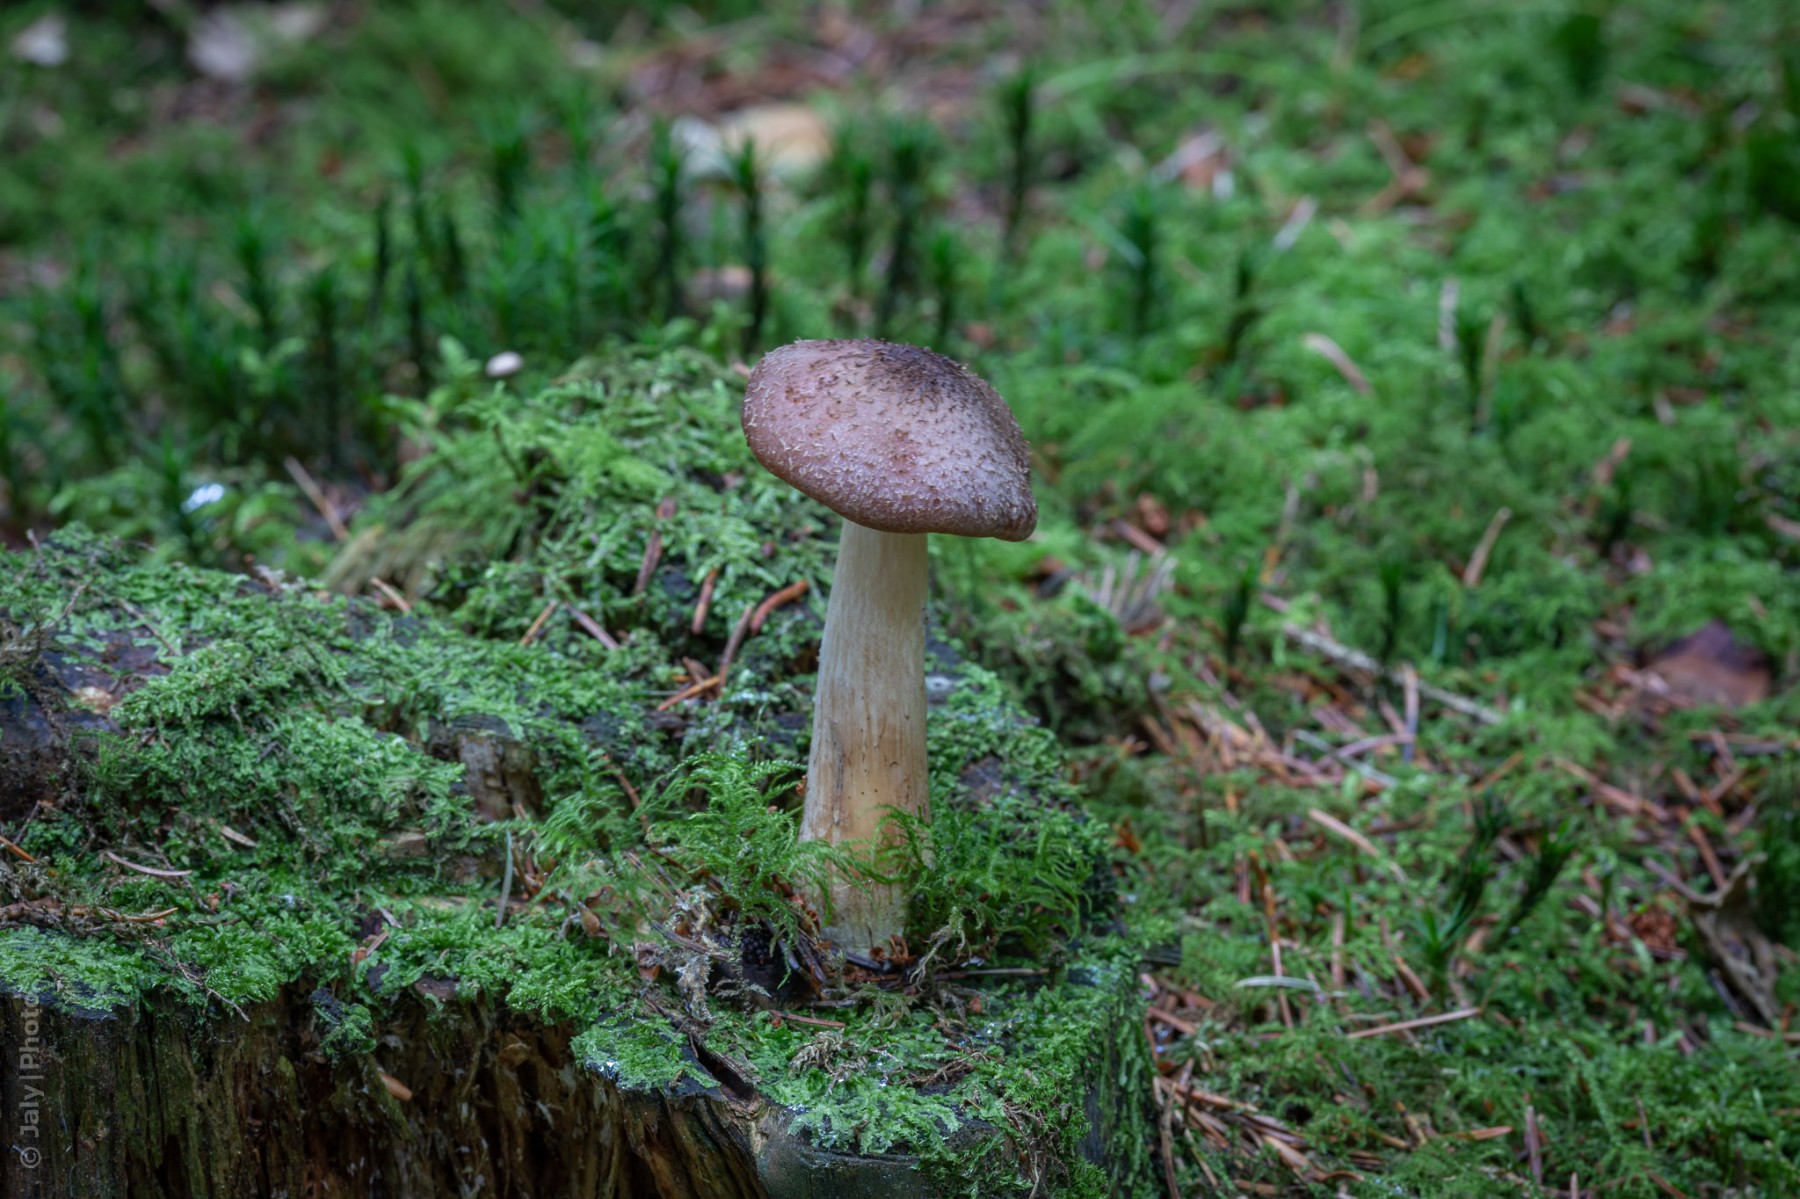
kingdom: Fungi
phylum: Basidiomycota
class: Agaricomycetes
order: Agaricales
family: Physalacriaceae
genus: Armillaria
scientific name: Armillaria ostoyae
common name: mørk honningsvamp
